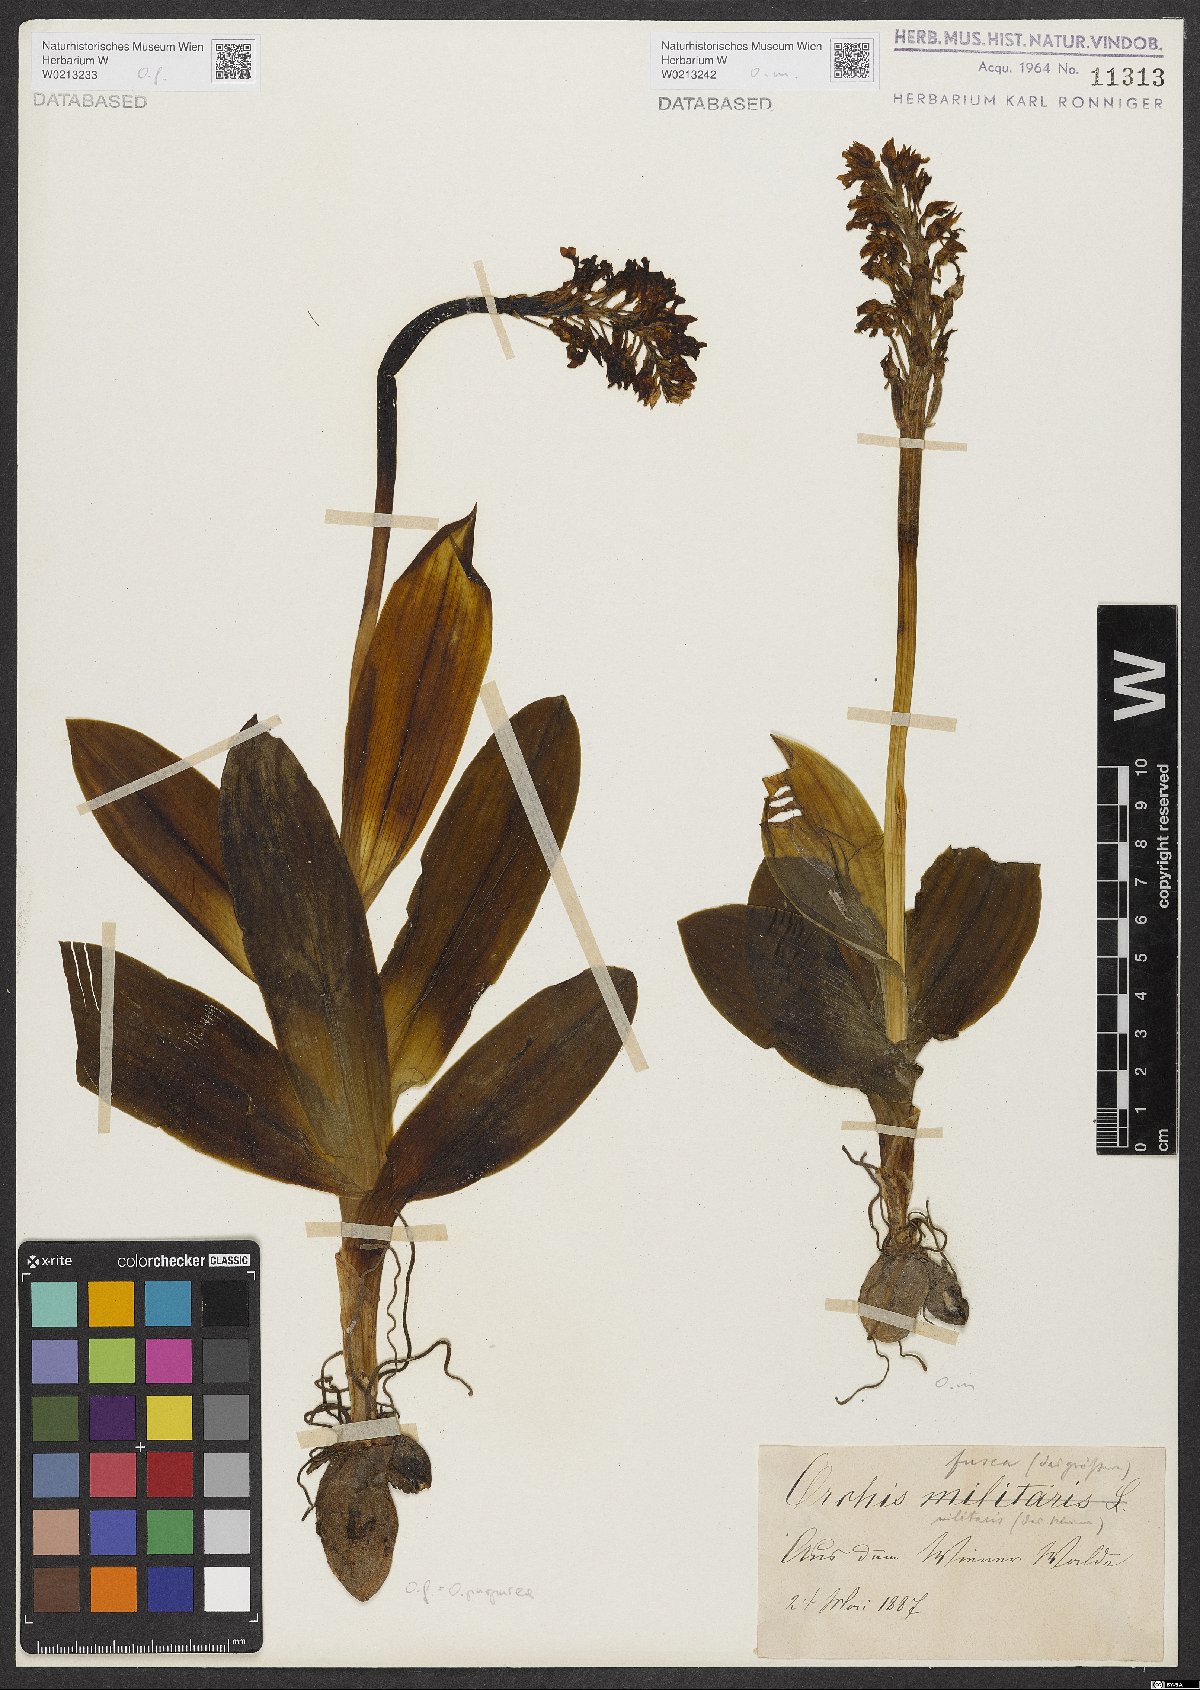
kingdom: Plantae
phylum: Tracheophyta
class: Liliopsida
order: Asparagales
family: Orchidaceae
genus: Orchis
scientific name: Orchis purpurea
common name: Lady orchid
